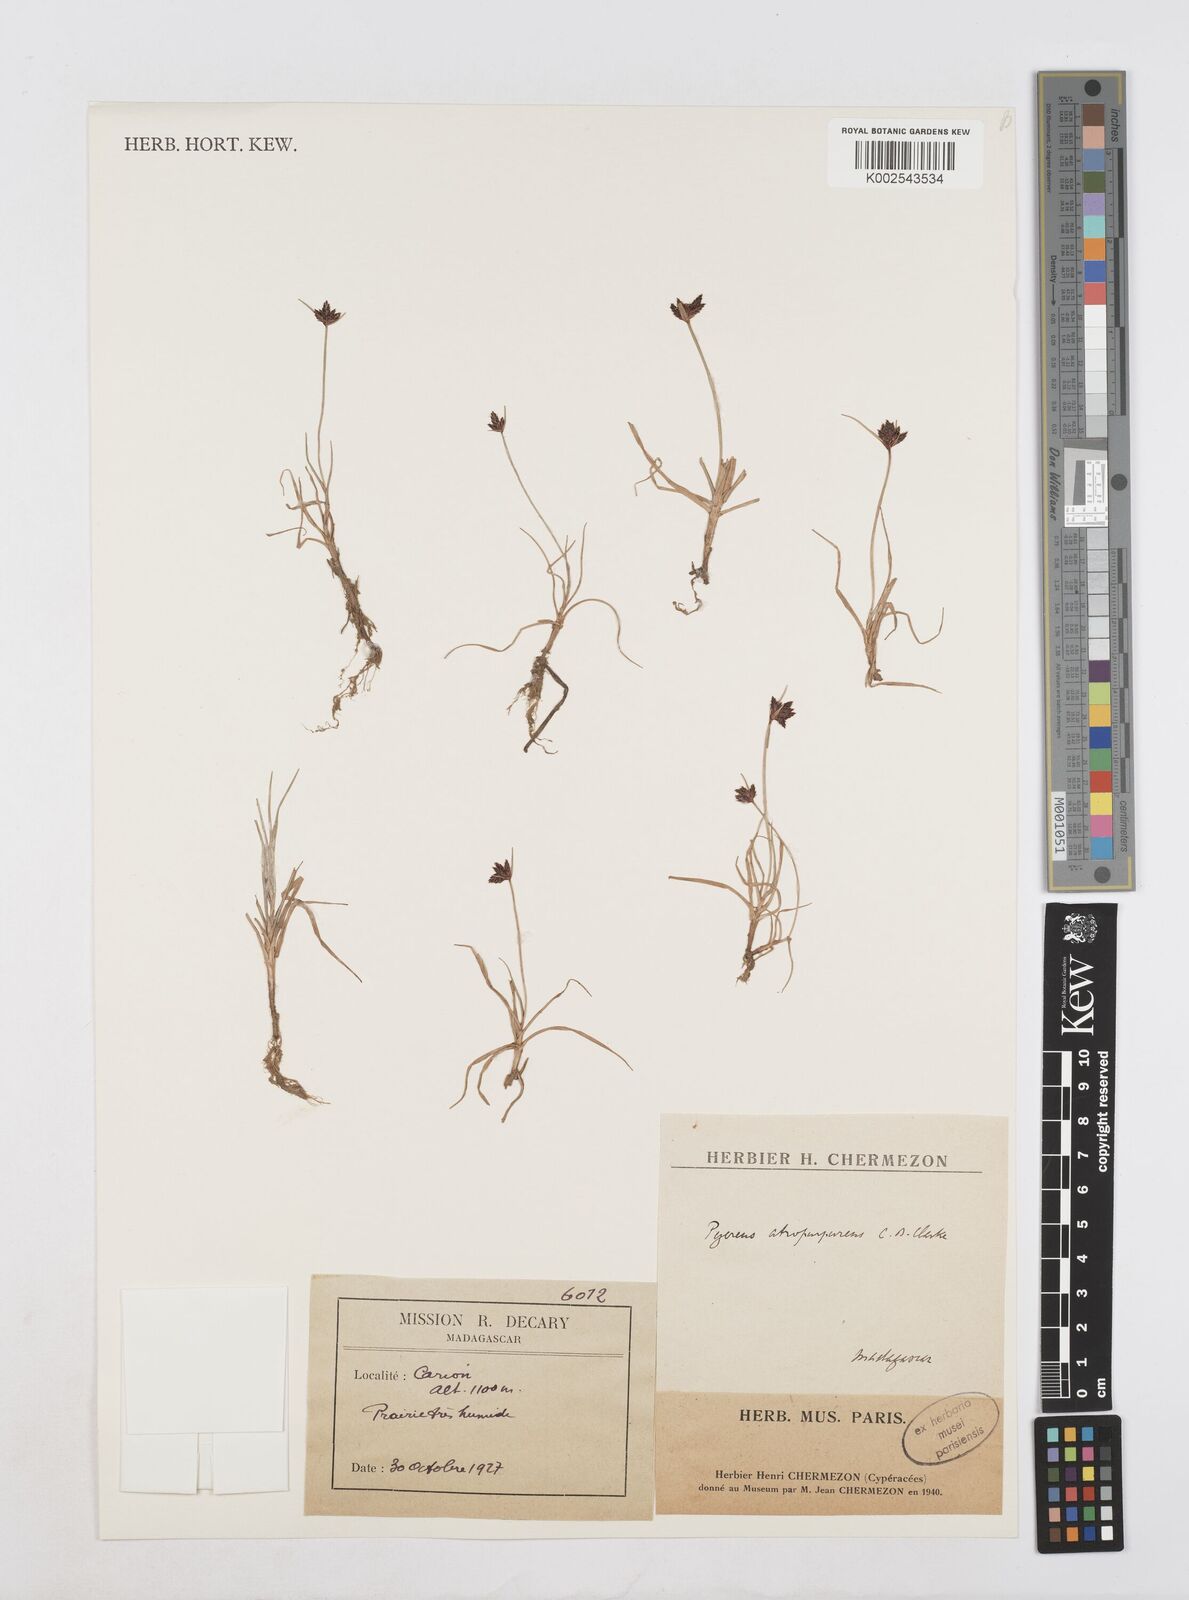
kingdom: Plantae
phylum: Tracheophyta
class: Liliopsida
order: Poales
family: Cyperaceae
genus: Cyperus
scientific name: Cyperus chermezonii
